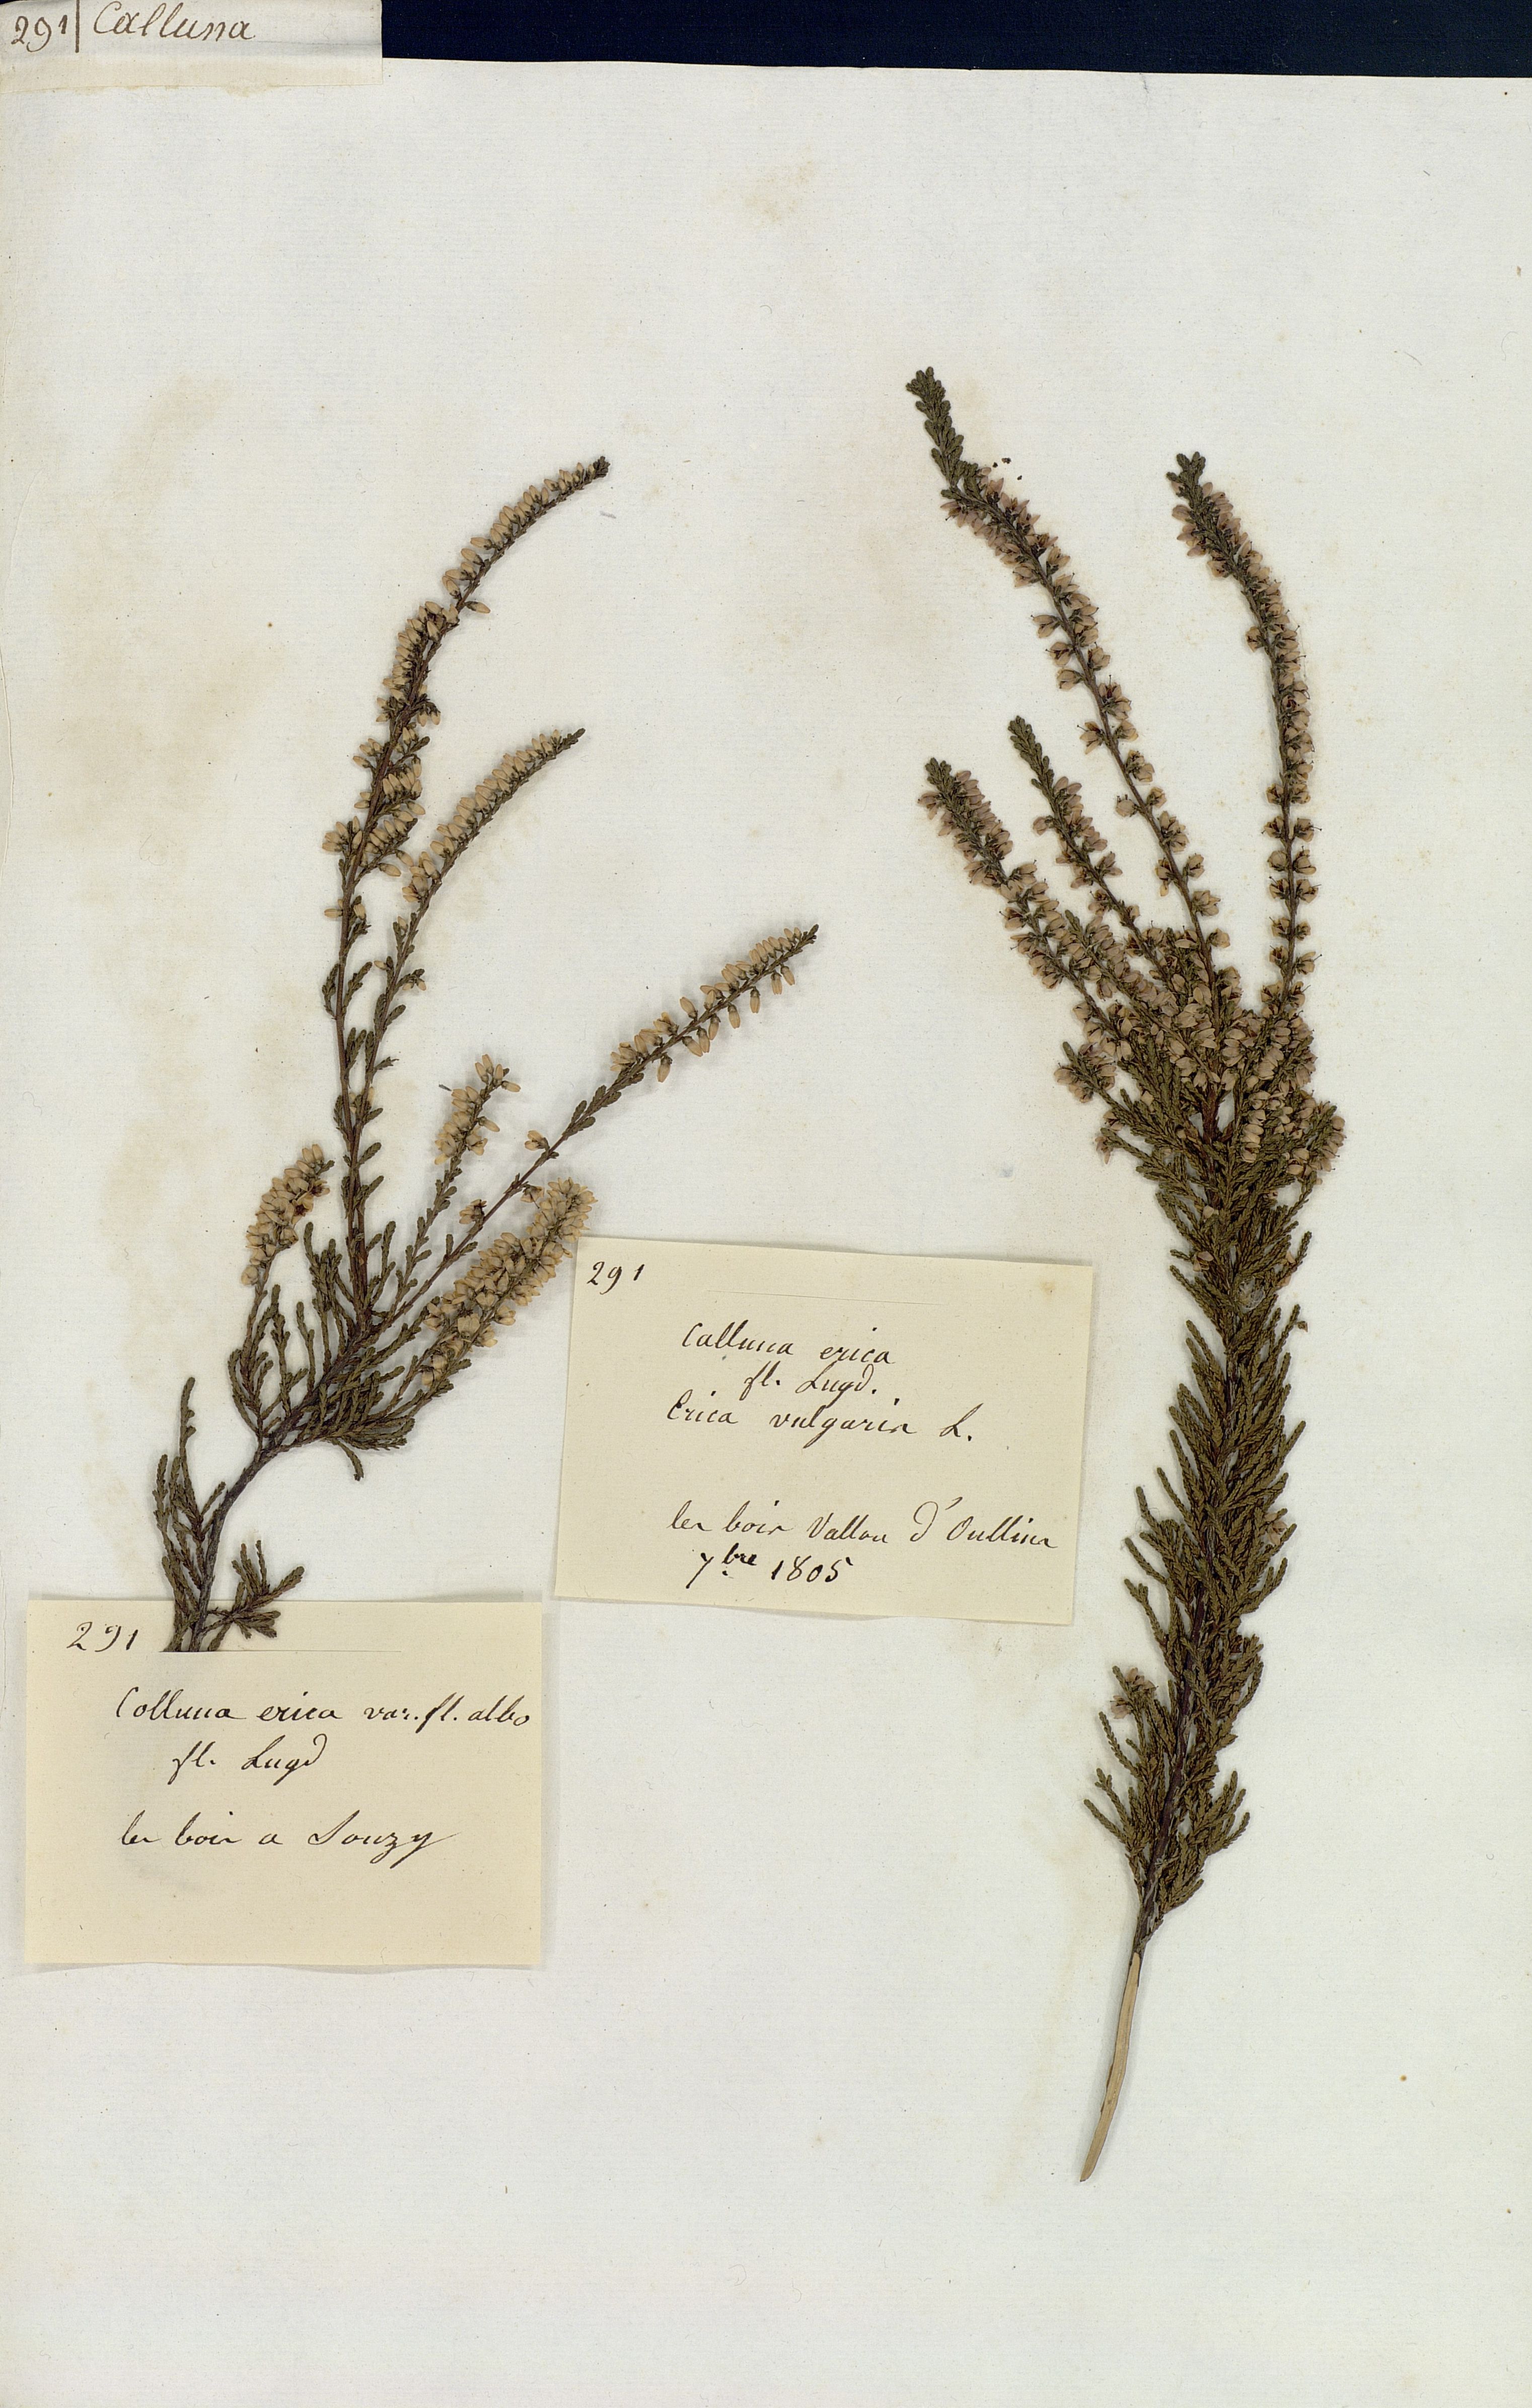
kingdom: Plantae
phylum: Tracheophyta
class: Magnoliopsida
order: Ericales
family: Ericaceae
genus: Calluna
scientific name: Calluna vulgaris
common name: Heather
